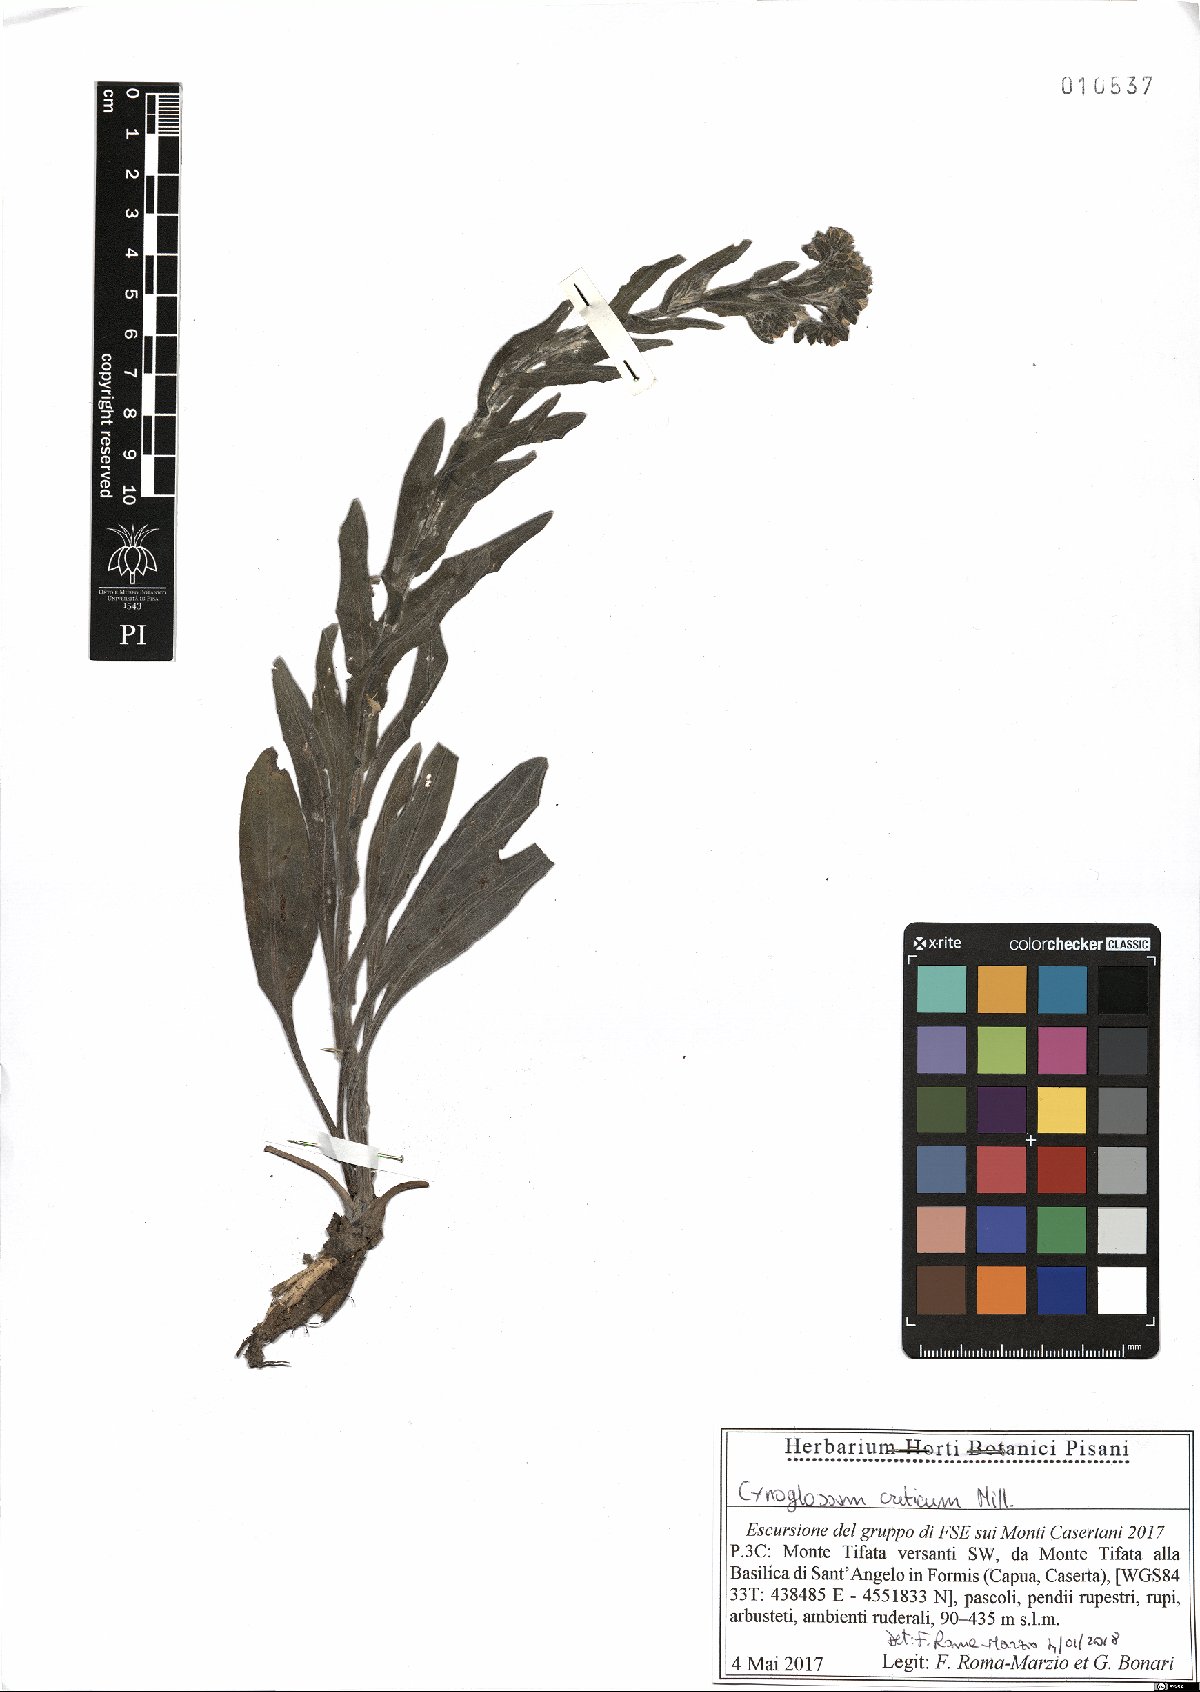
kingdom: Plantae
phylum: Tracheophyta
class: Magnoliopsida
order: Boraginales
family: Boraginaceae
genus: Cynoglossum
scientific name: Cynoglossum creticum
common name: Blue hound's tongue
